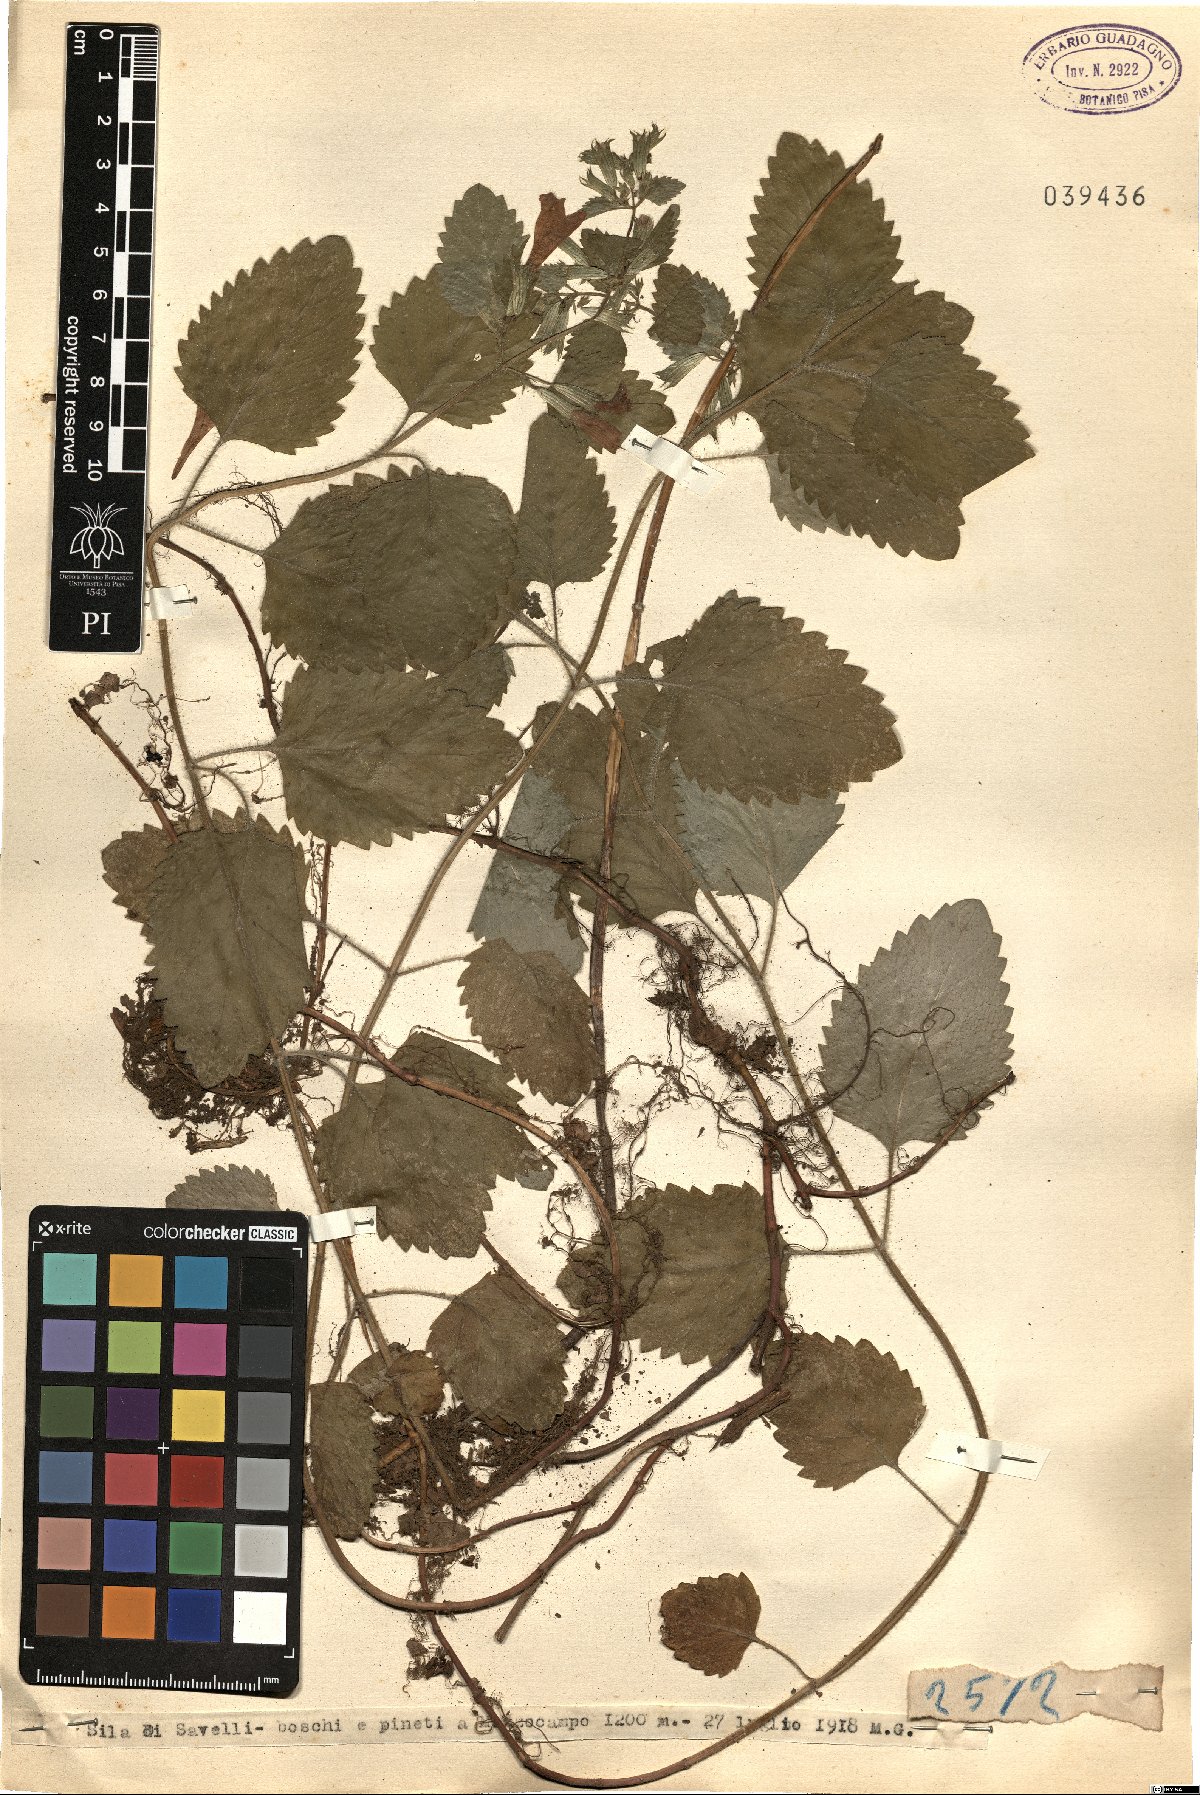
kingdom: Plantae
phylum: Tracheophyta
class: Magnoliopsida
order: Lamiales
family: Lamiaceae
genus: Calamintha
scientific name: Calamintha
